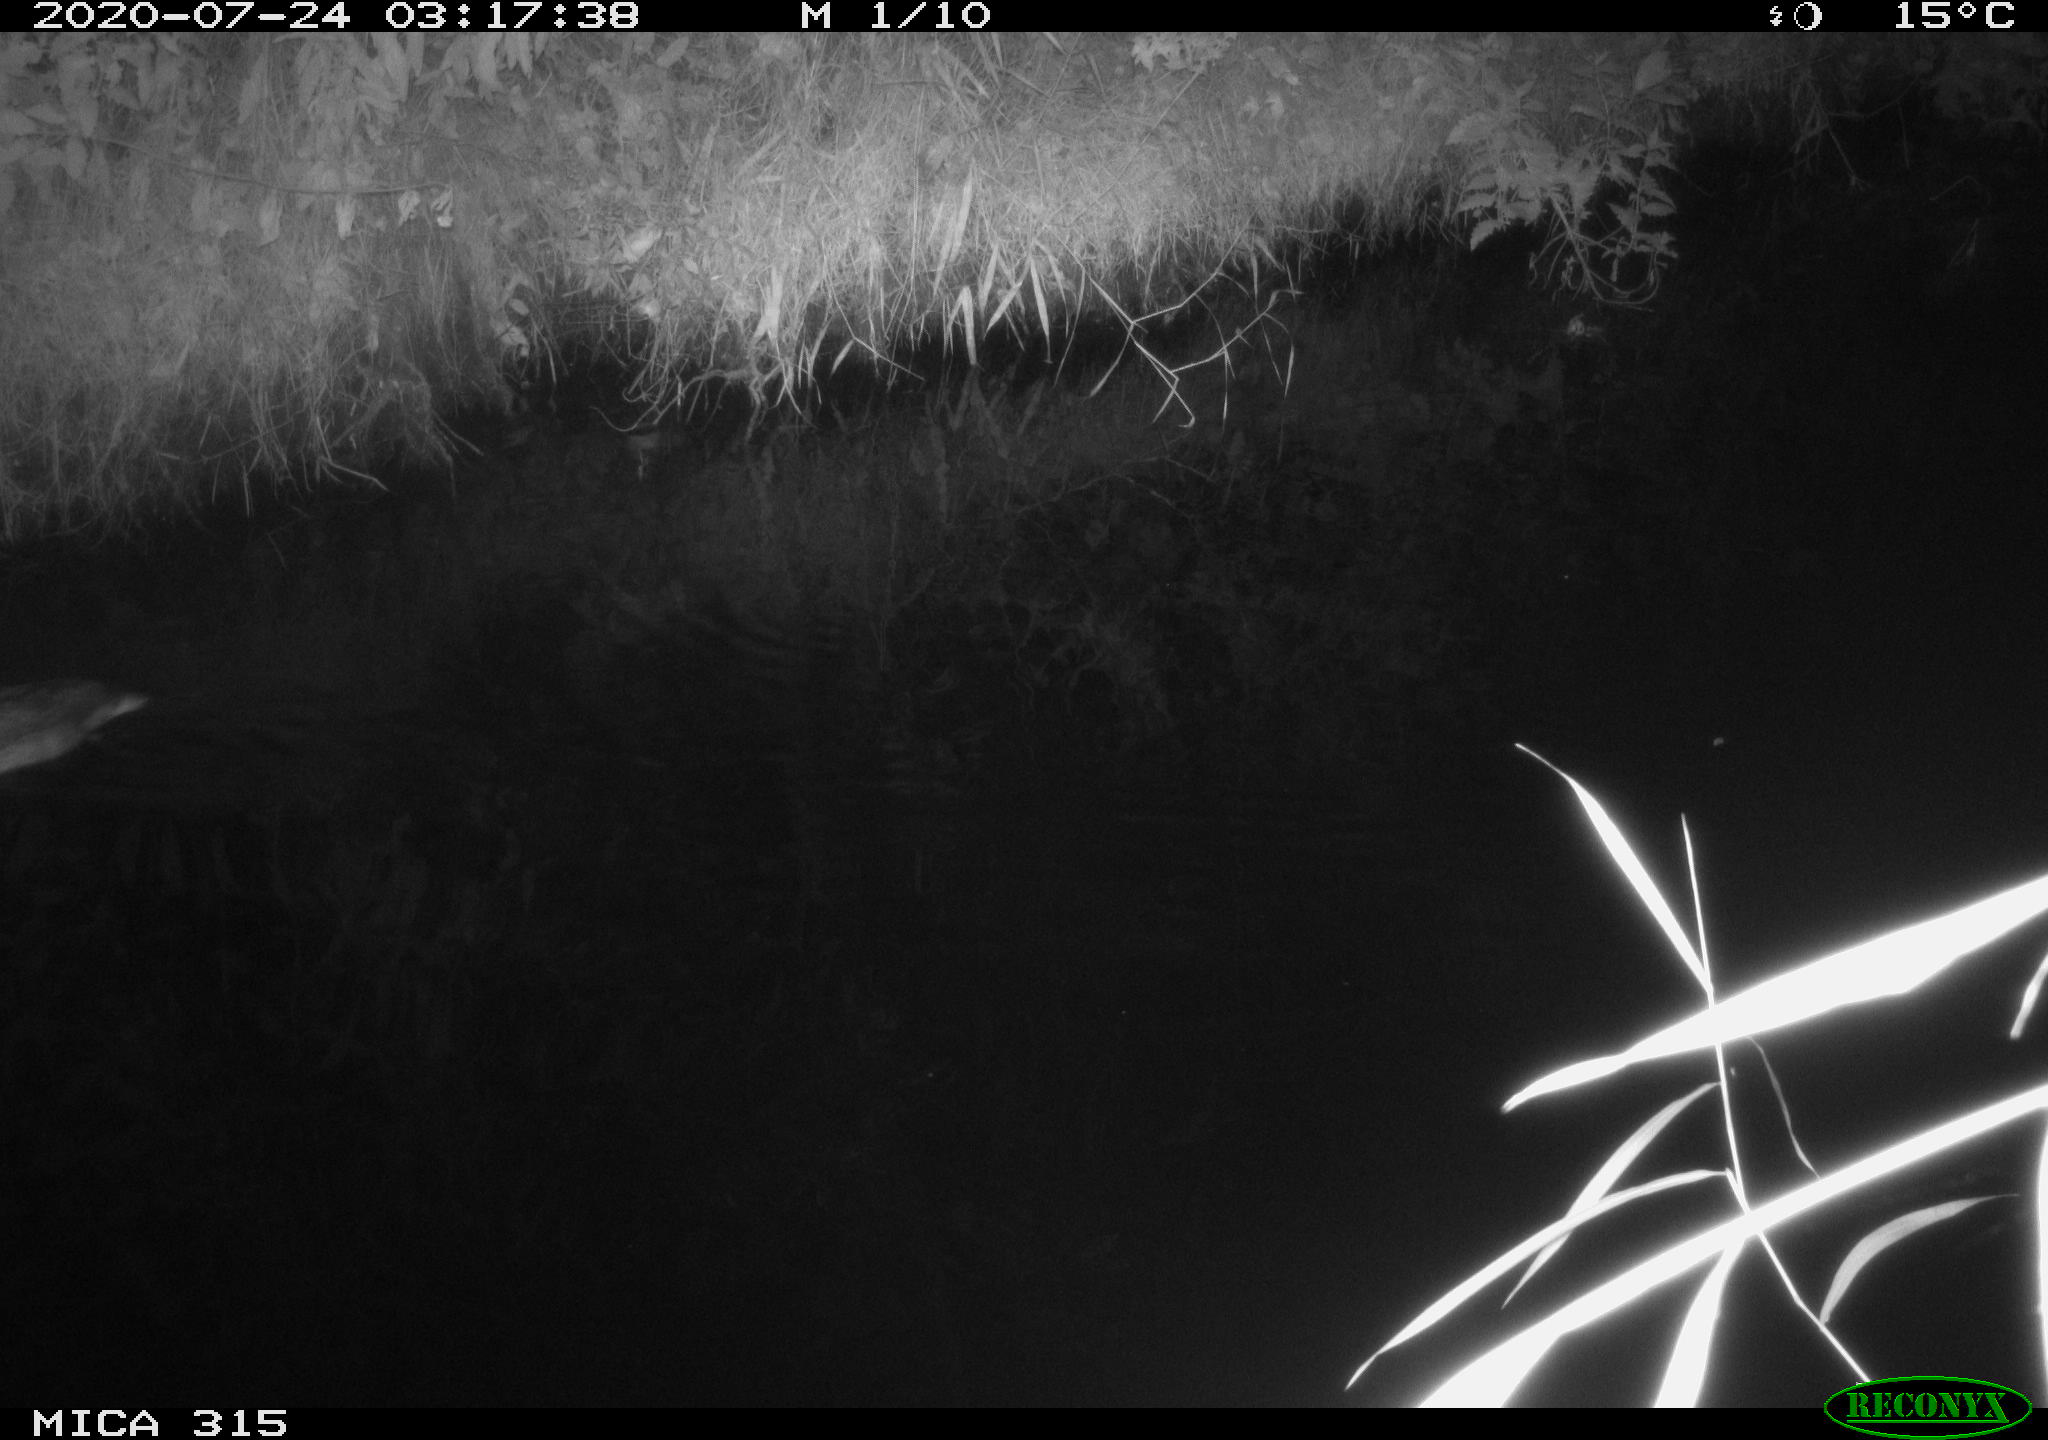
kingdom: Animalia
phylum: Chordata
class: Aves
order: Anseriformes
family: Anatidae
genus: Anas
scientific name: Anas platyrhynchos
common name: Mallard
